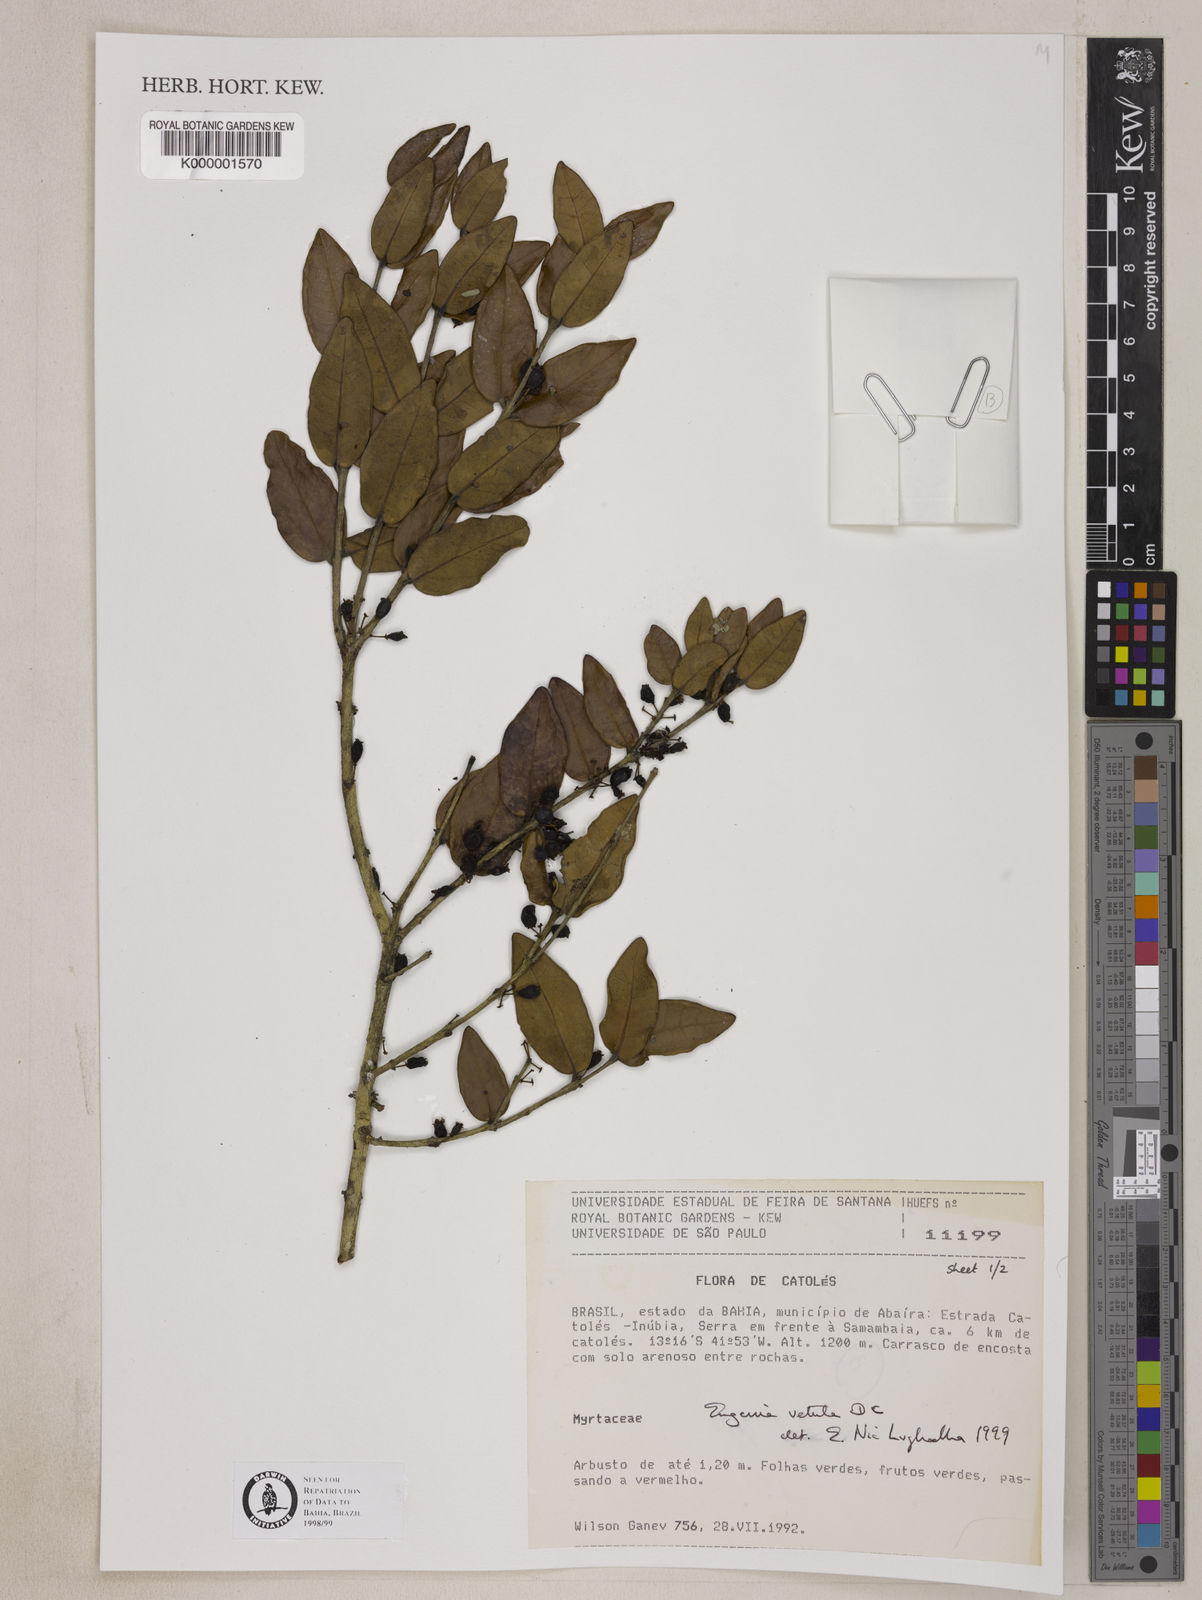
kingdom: Plantae
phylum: Tracheophyta
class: Magnoliopsida
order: Myrtales
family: Myrtaceae
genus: Eugenia
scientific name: Eugenia vetula
